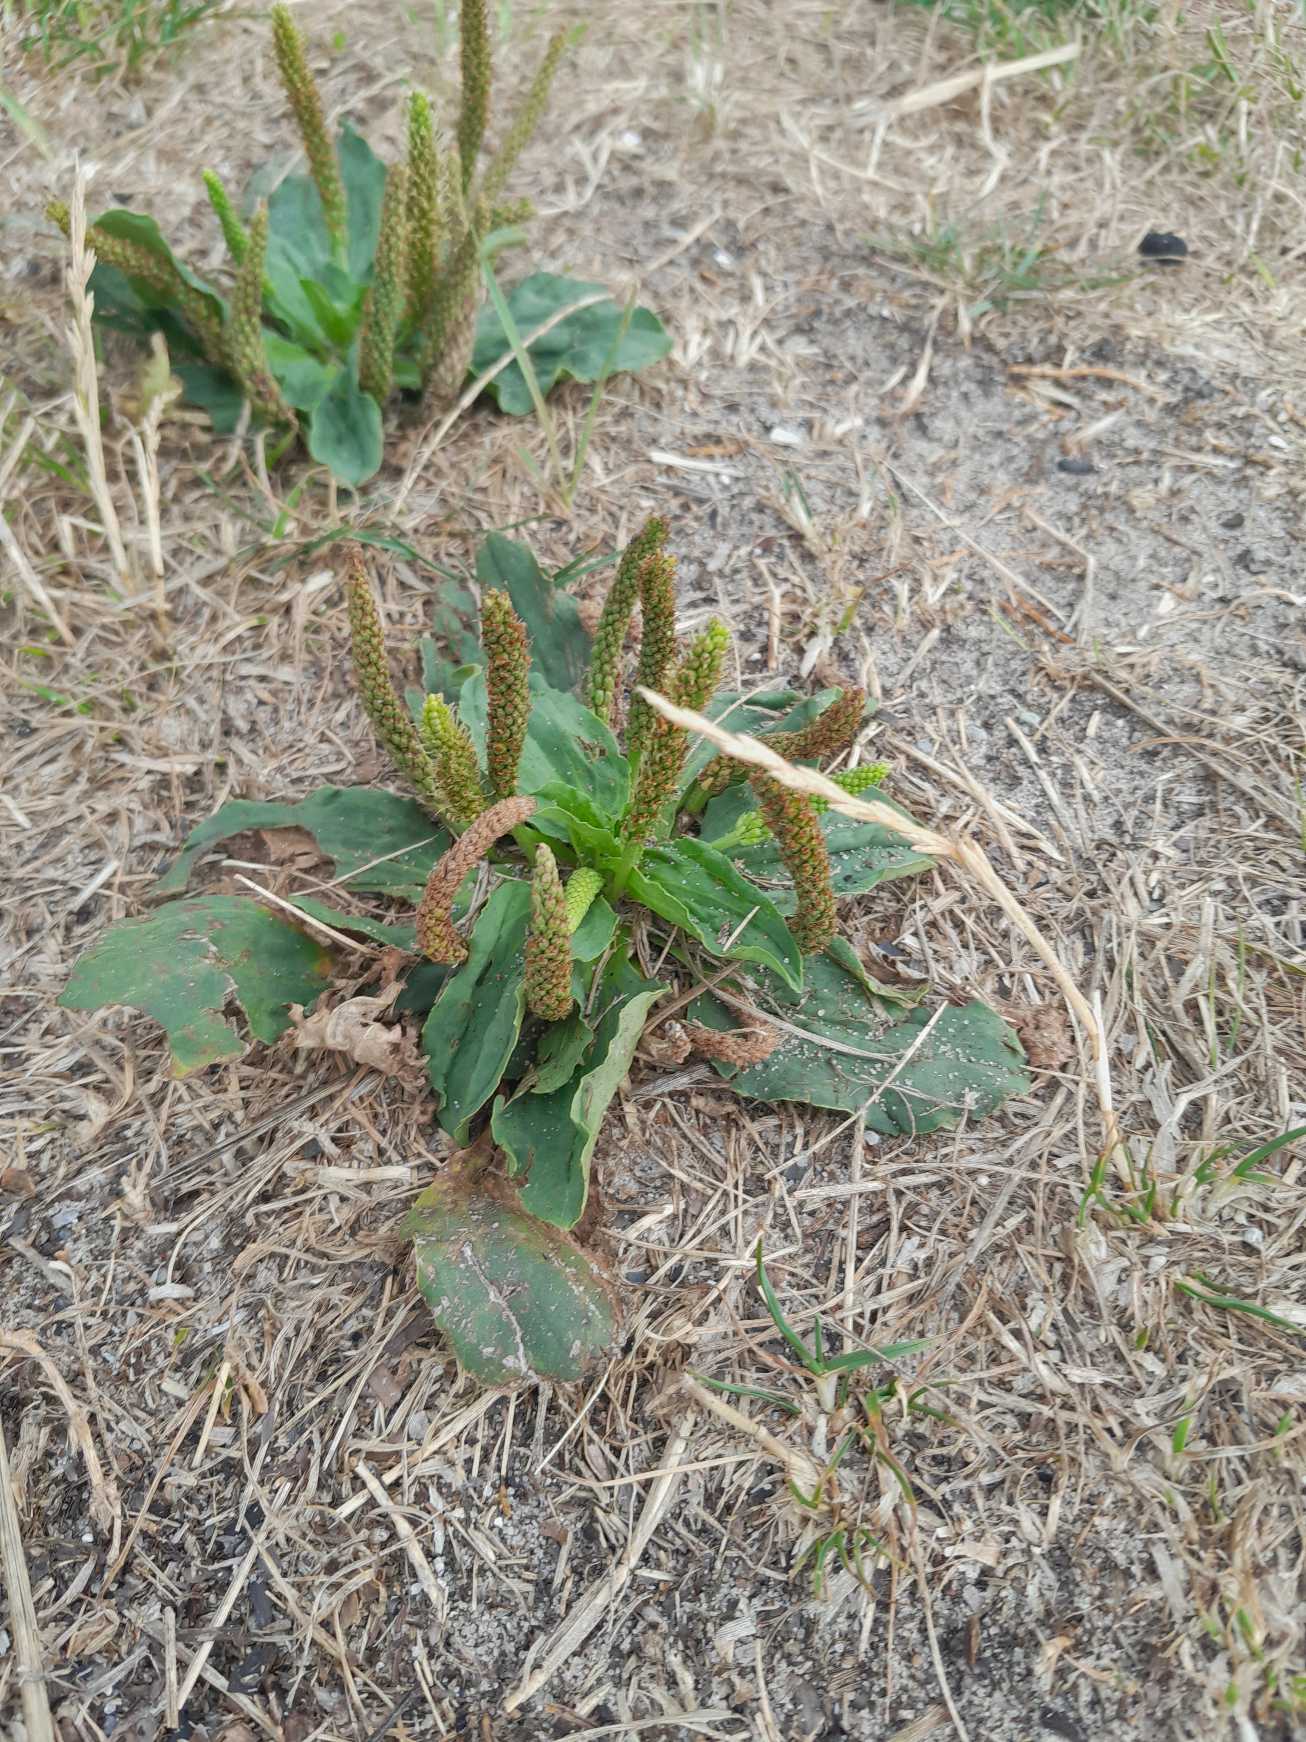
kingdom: Plantae
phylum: Tracheophyta
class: Magnoliopsida
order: Lamiales
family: Plantaginaceae
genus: Plantago
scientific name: Plantago major
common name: Glat vejbred
